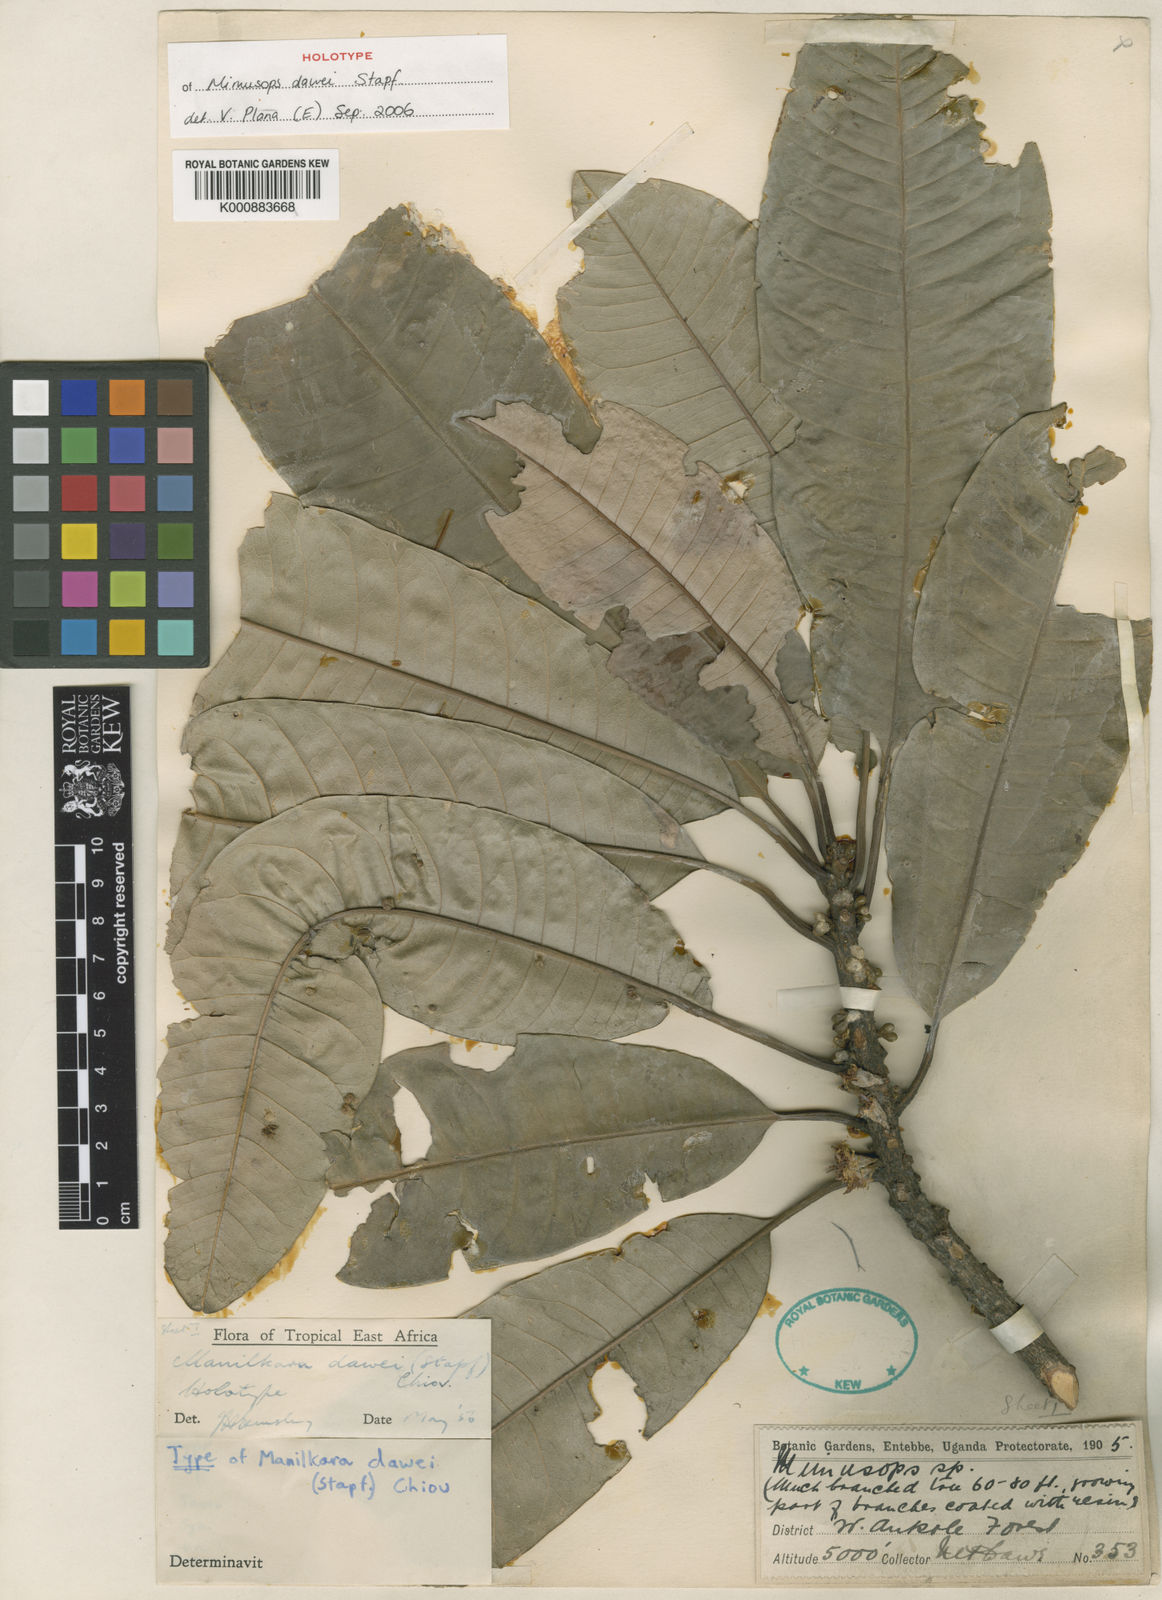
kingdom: Plantae
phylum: Tracheophyta
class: Magnoliopsida
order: Ericales
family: Sapotaceae
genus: Manilkara
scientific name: Manilkara dawei
